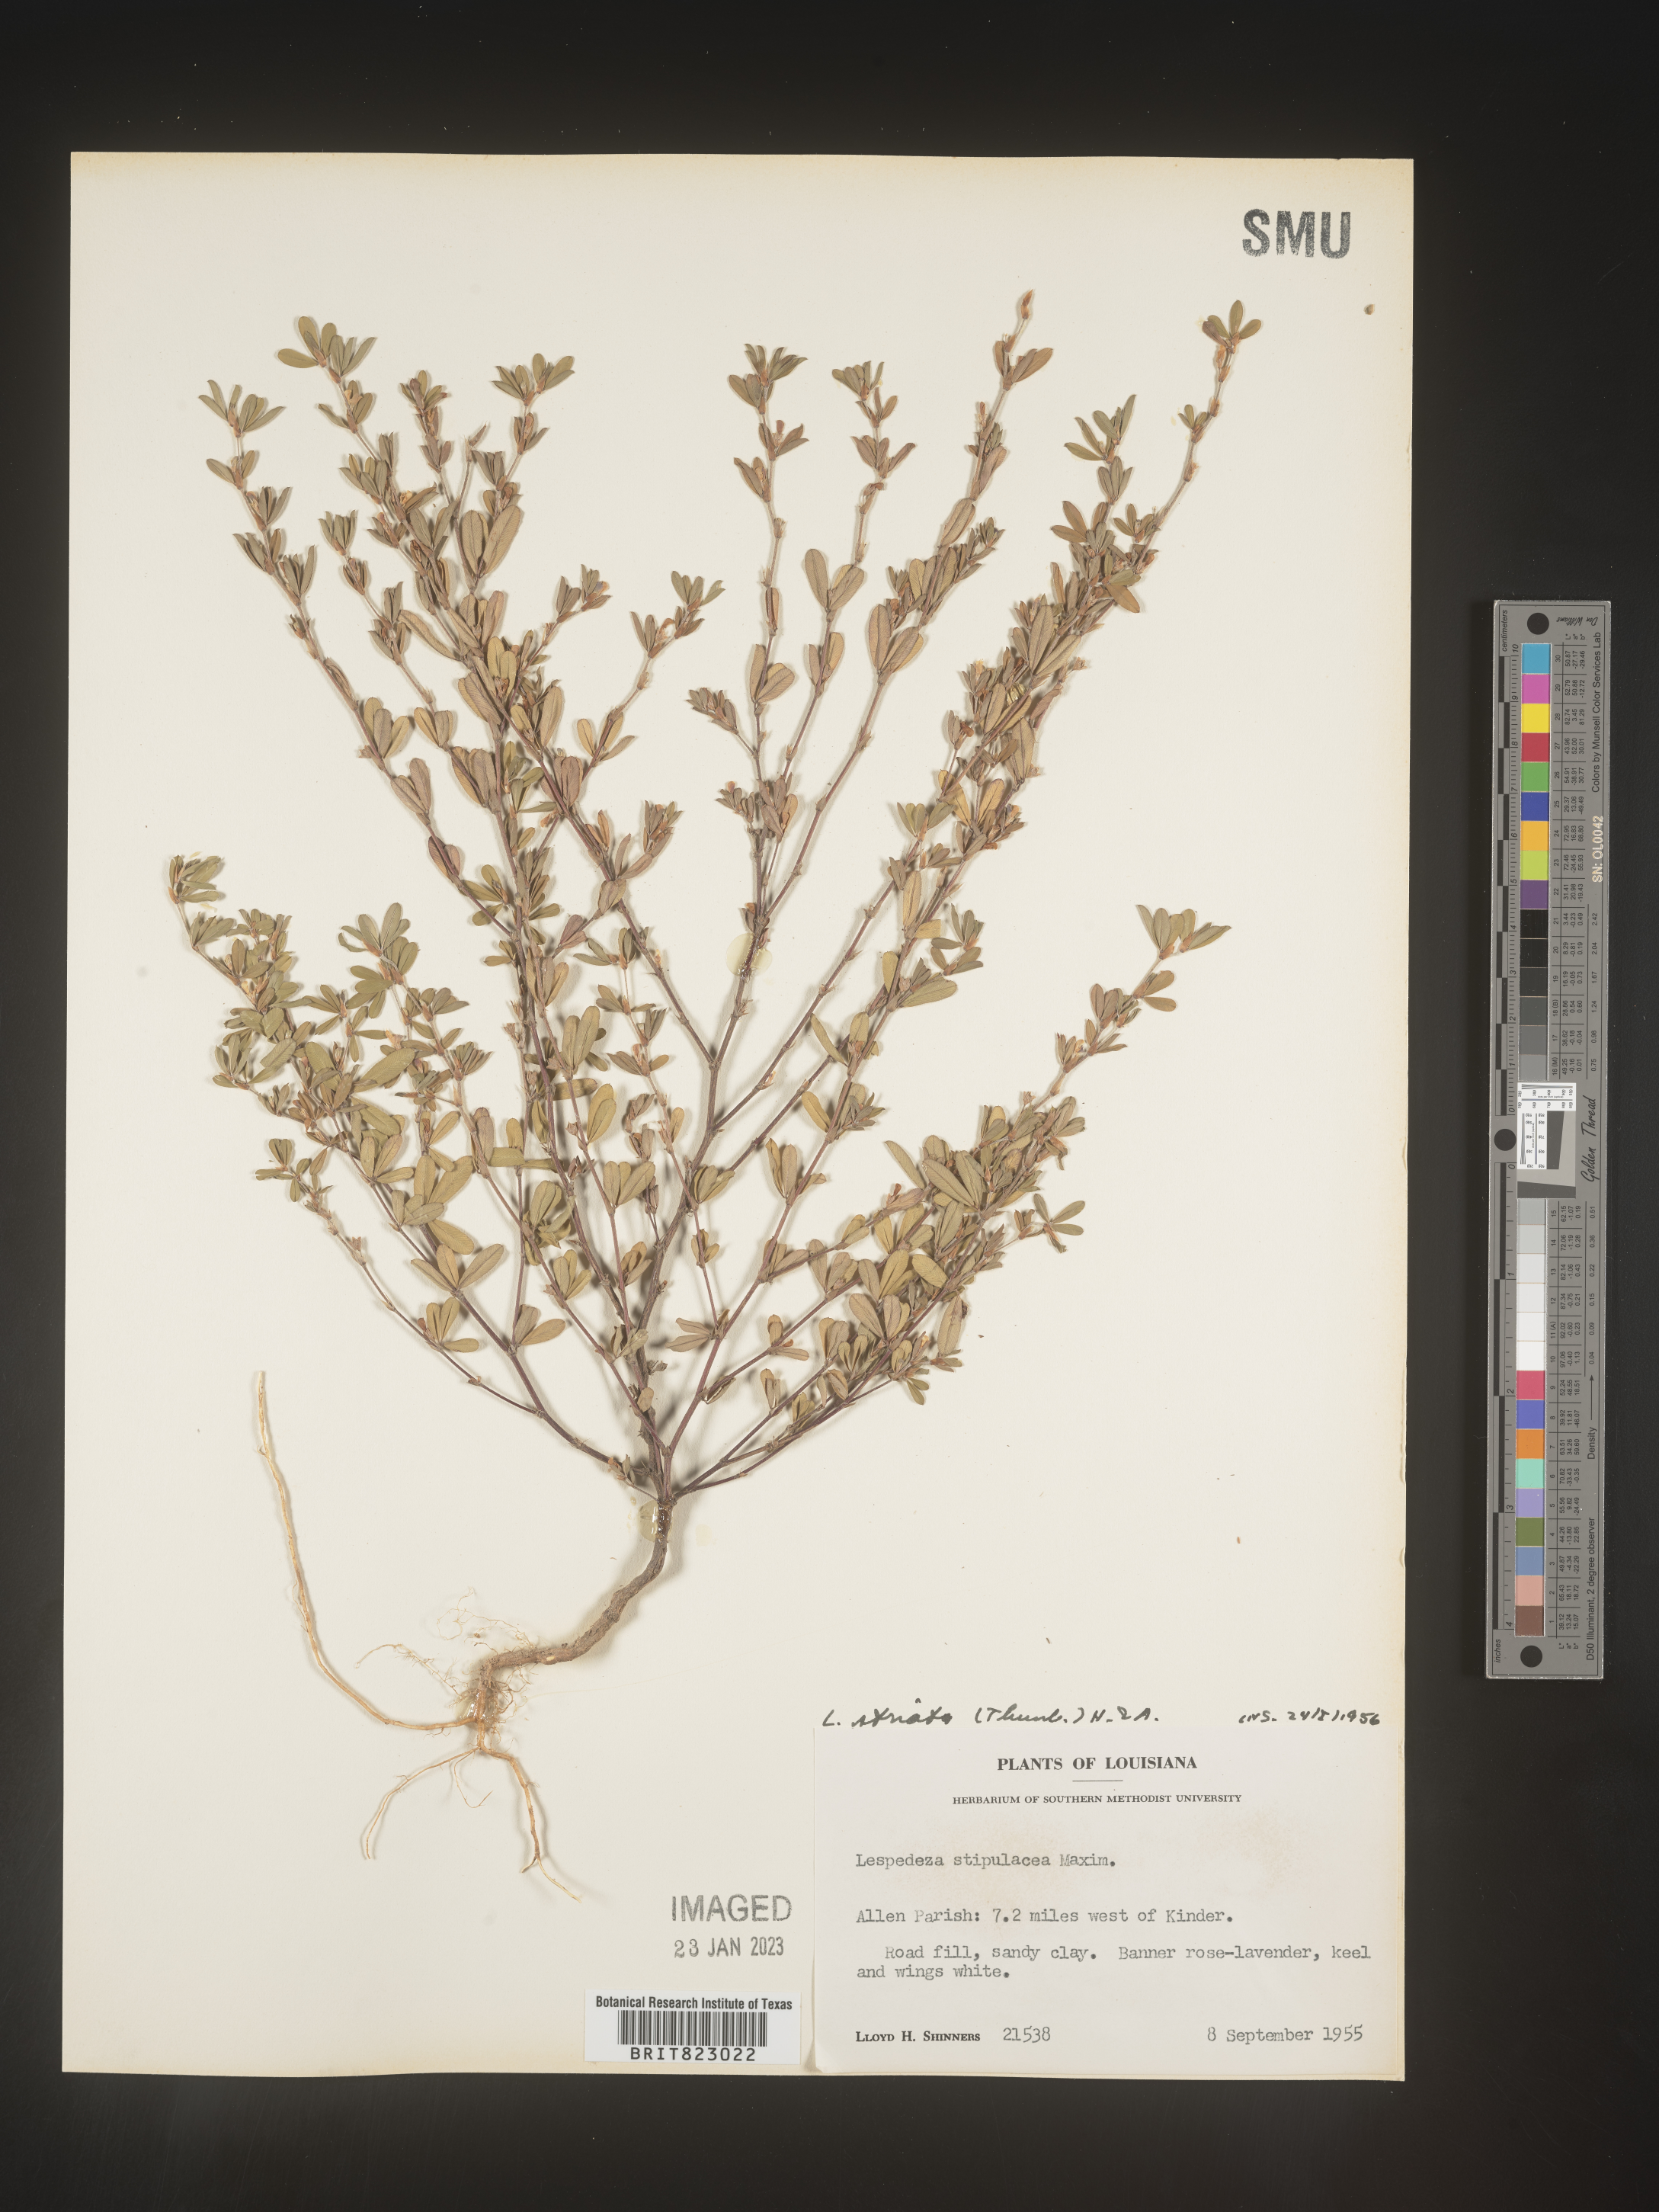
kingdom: Plantae
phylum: Tracheophyta
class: Magnoliopsida
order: Fabales
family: Fabaceae
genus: Kummerowia
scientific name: Kummerowia striata
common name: Japanese clover
